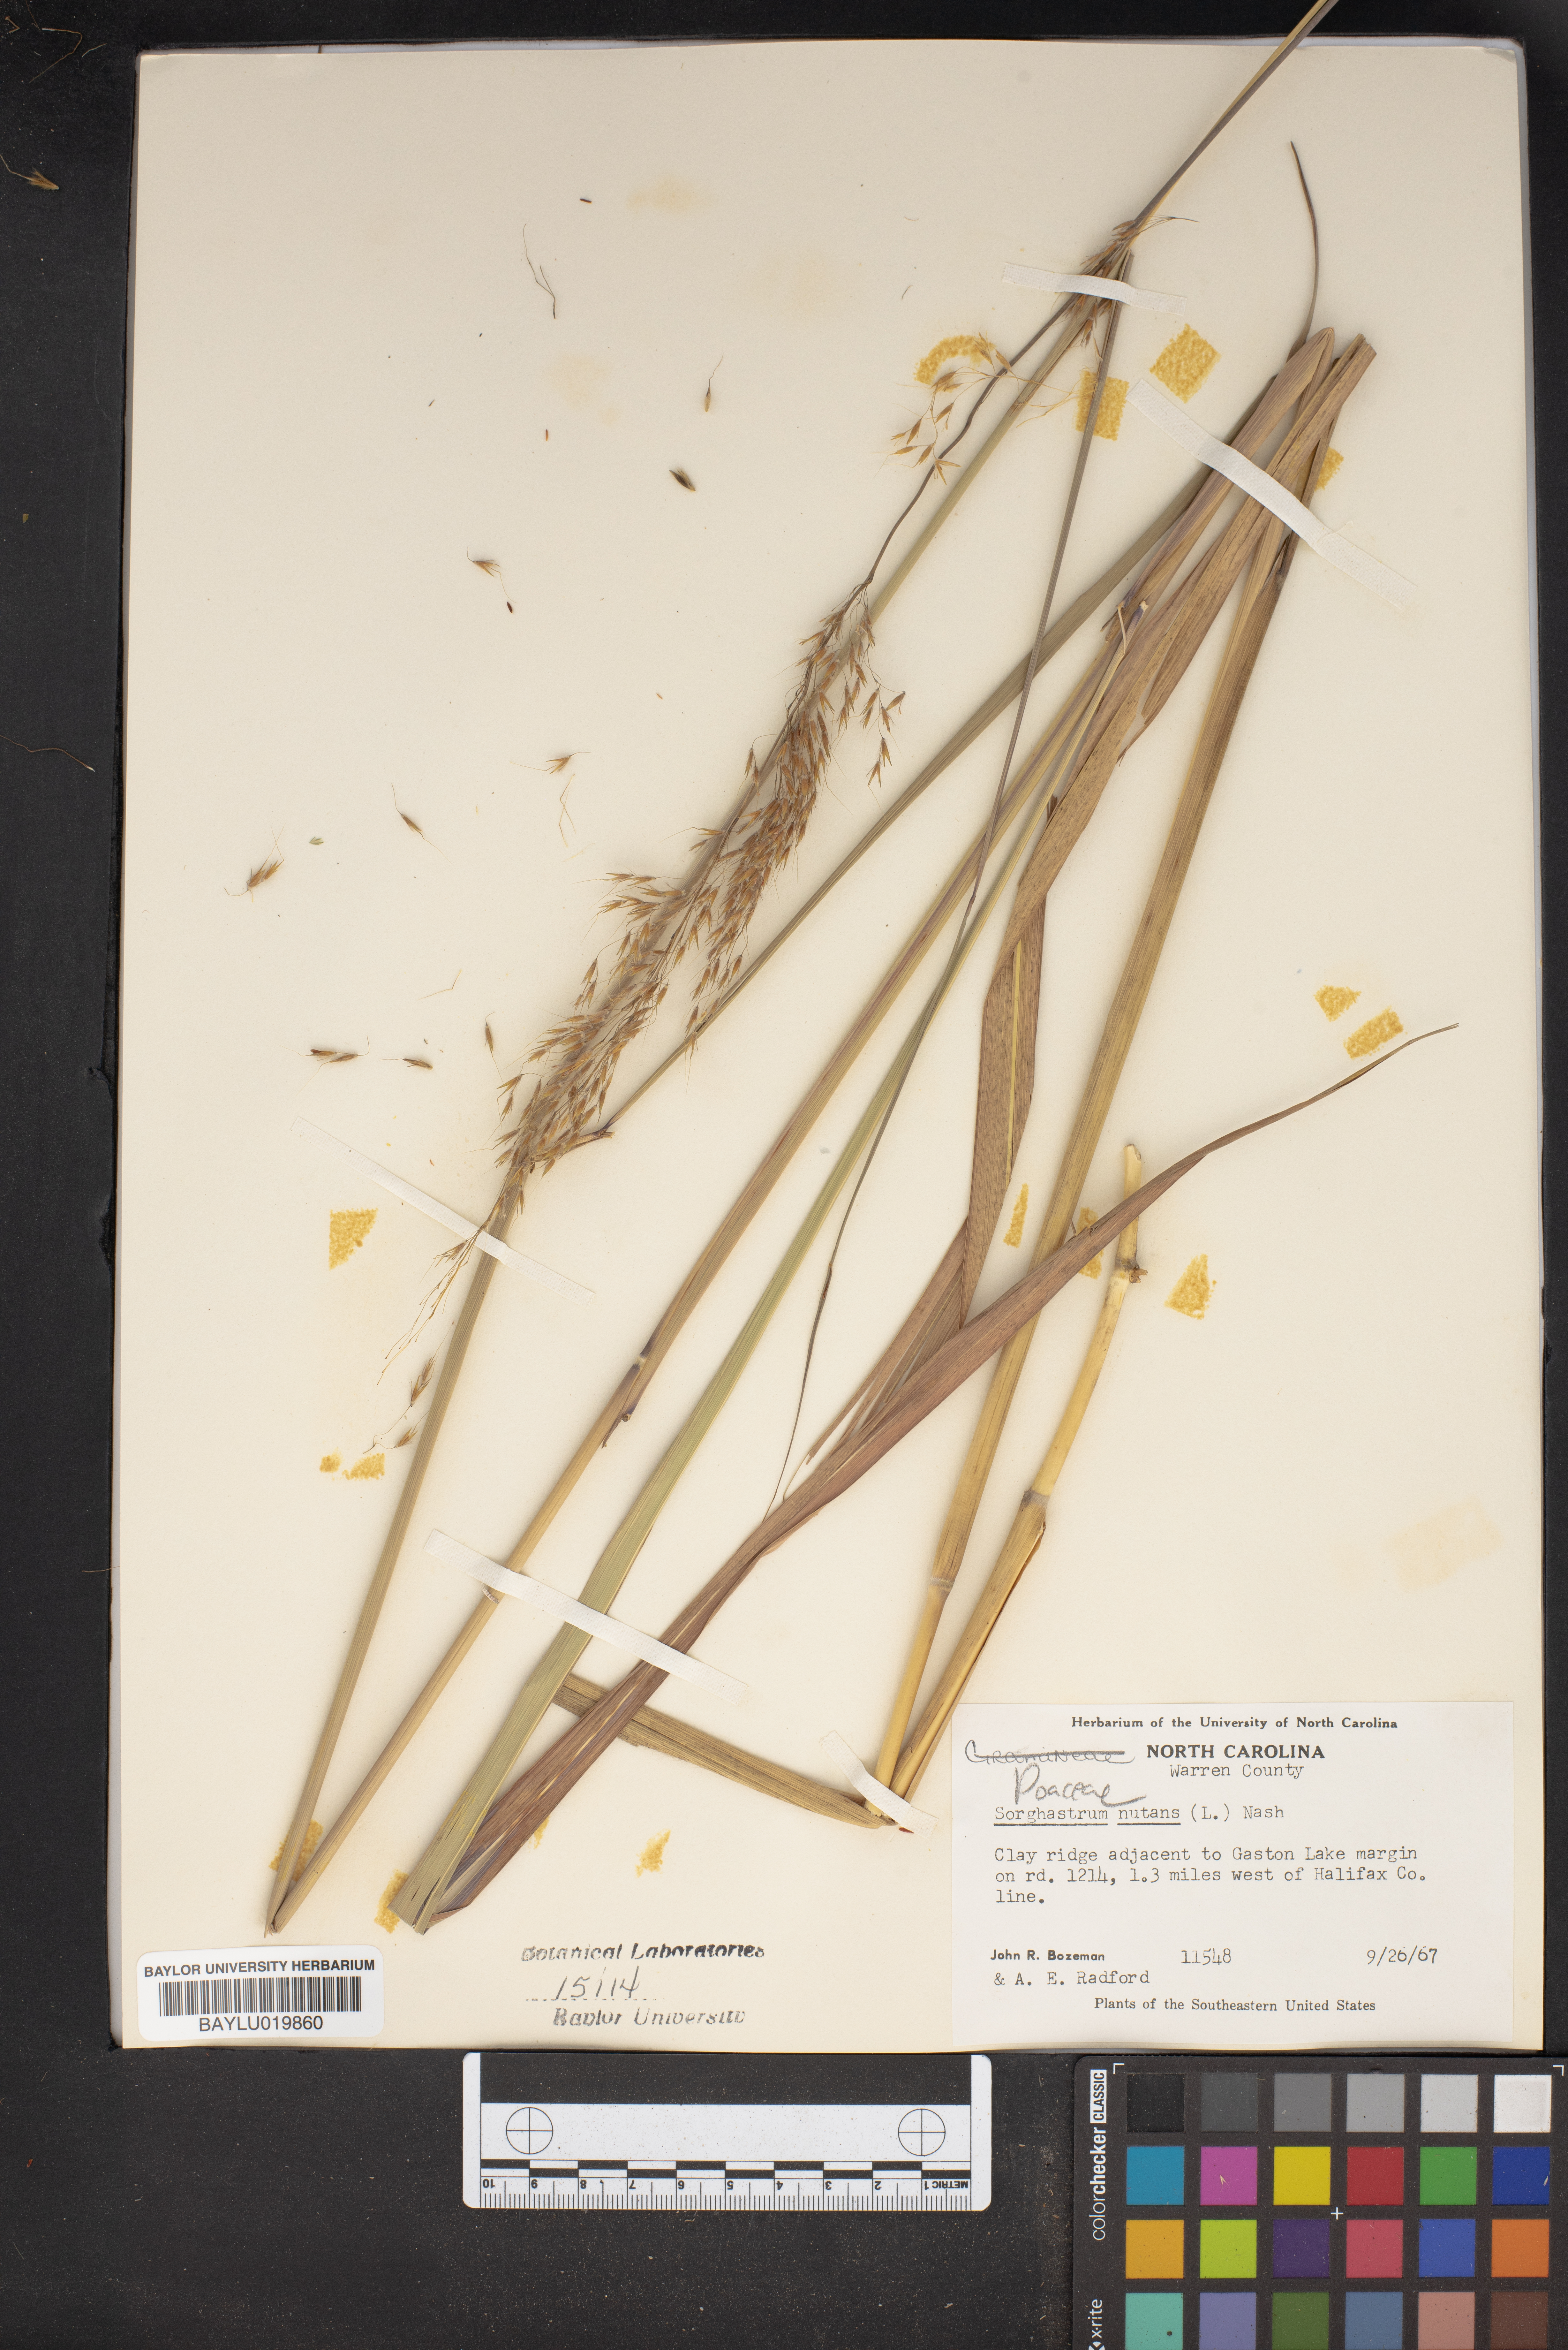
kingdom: Plantae
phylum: Tracheophyta
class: Liliopsida
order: Poales
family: Poaceae
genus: Sorghastrum
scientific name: Sorghastrum nutans
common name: Indian grass
